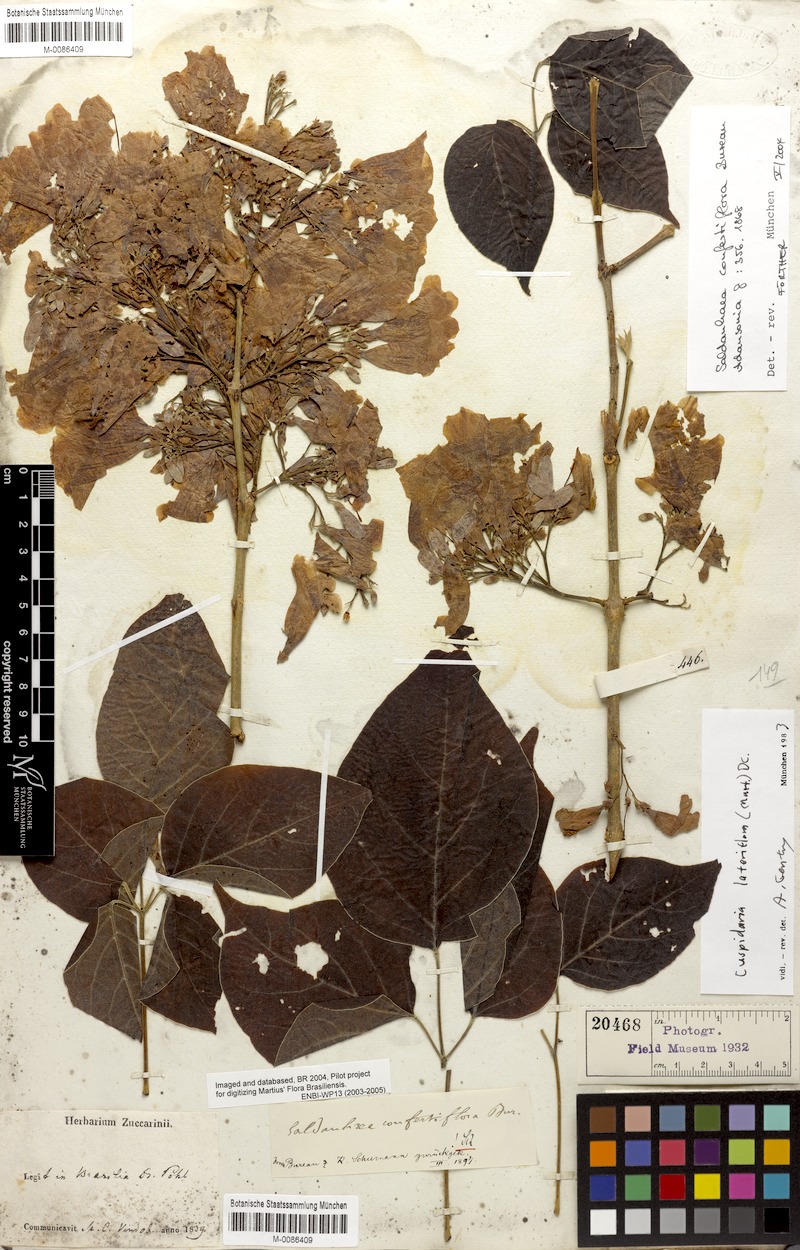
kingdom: Plantae
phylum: Tracheophyta
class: Magnoliopsida
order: Lamiales
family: Bignoniaceae
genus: Cuspidaria
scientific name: Cuspidaria lateriflora
